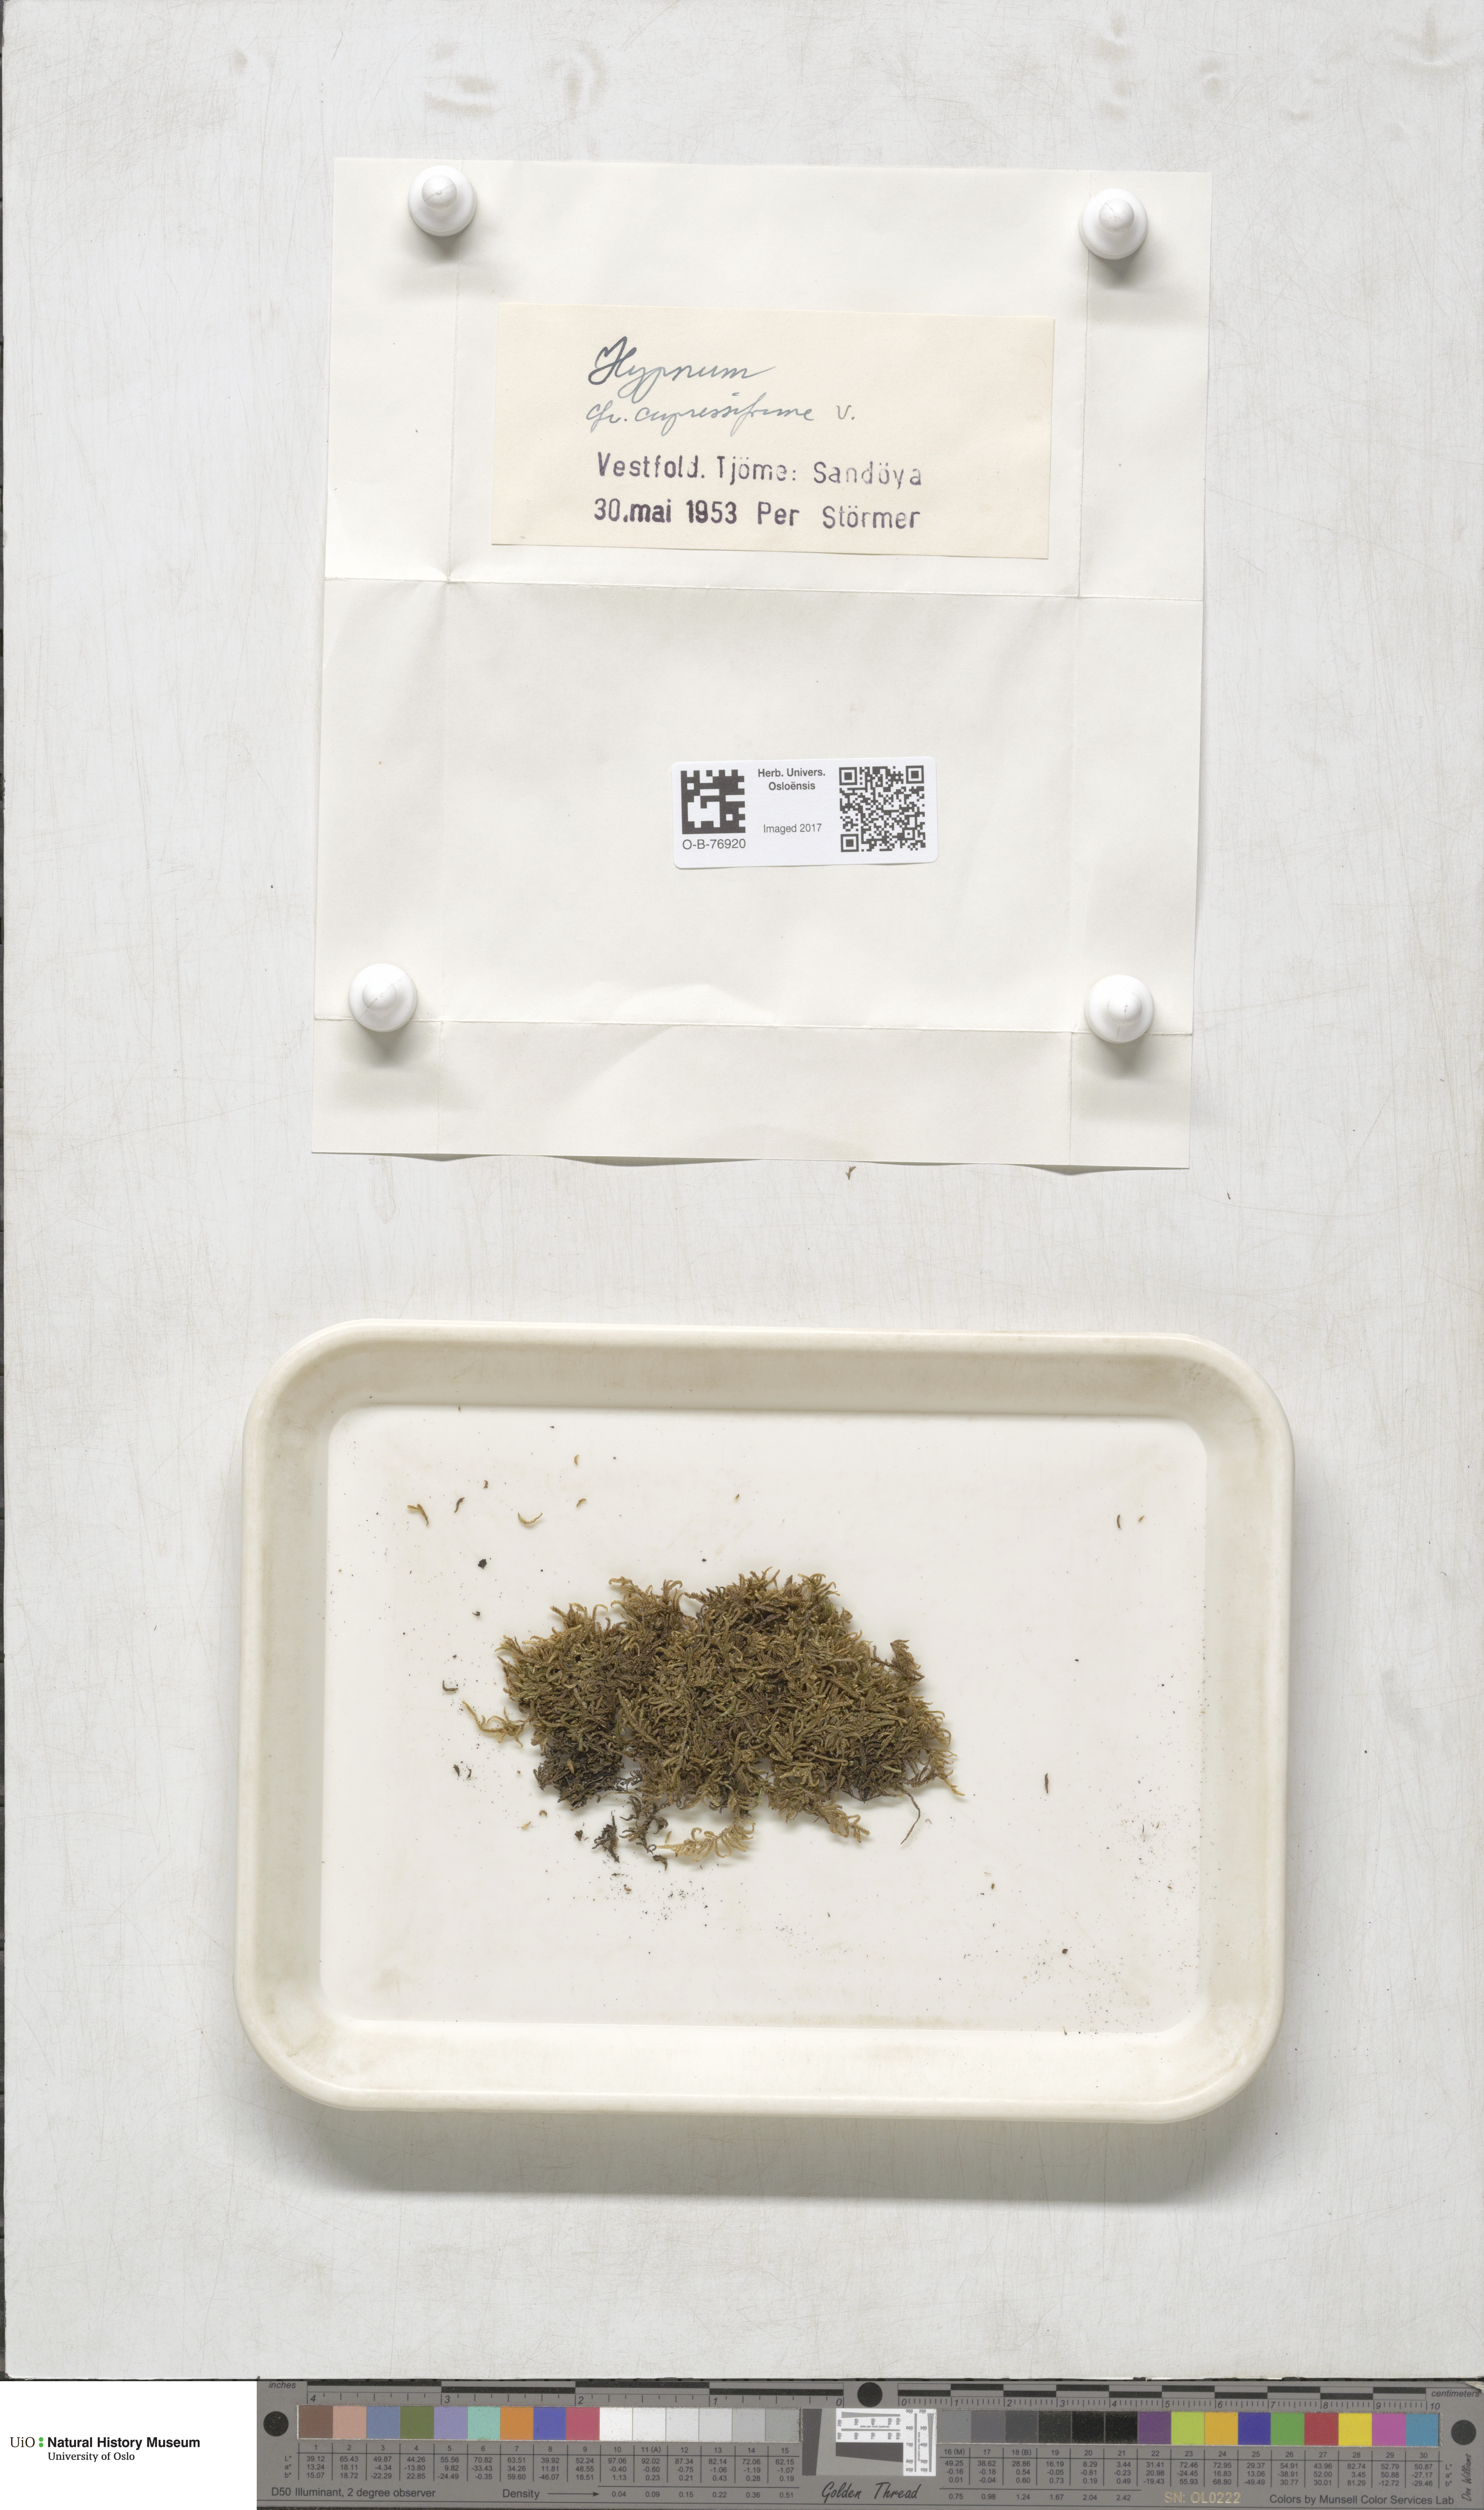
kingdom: Plantae
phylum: Bryophyta
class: Bryopsida
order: Hypnales
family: Hypnaceae
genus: Hypnum
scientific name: Hypnum cupressiforme
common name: Cypress-leaved plait-moss
